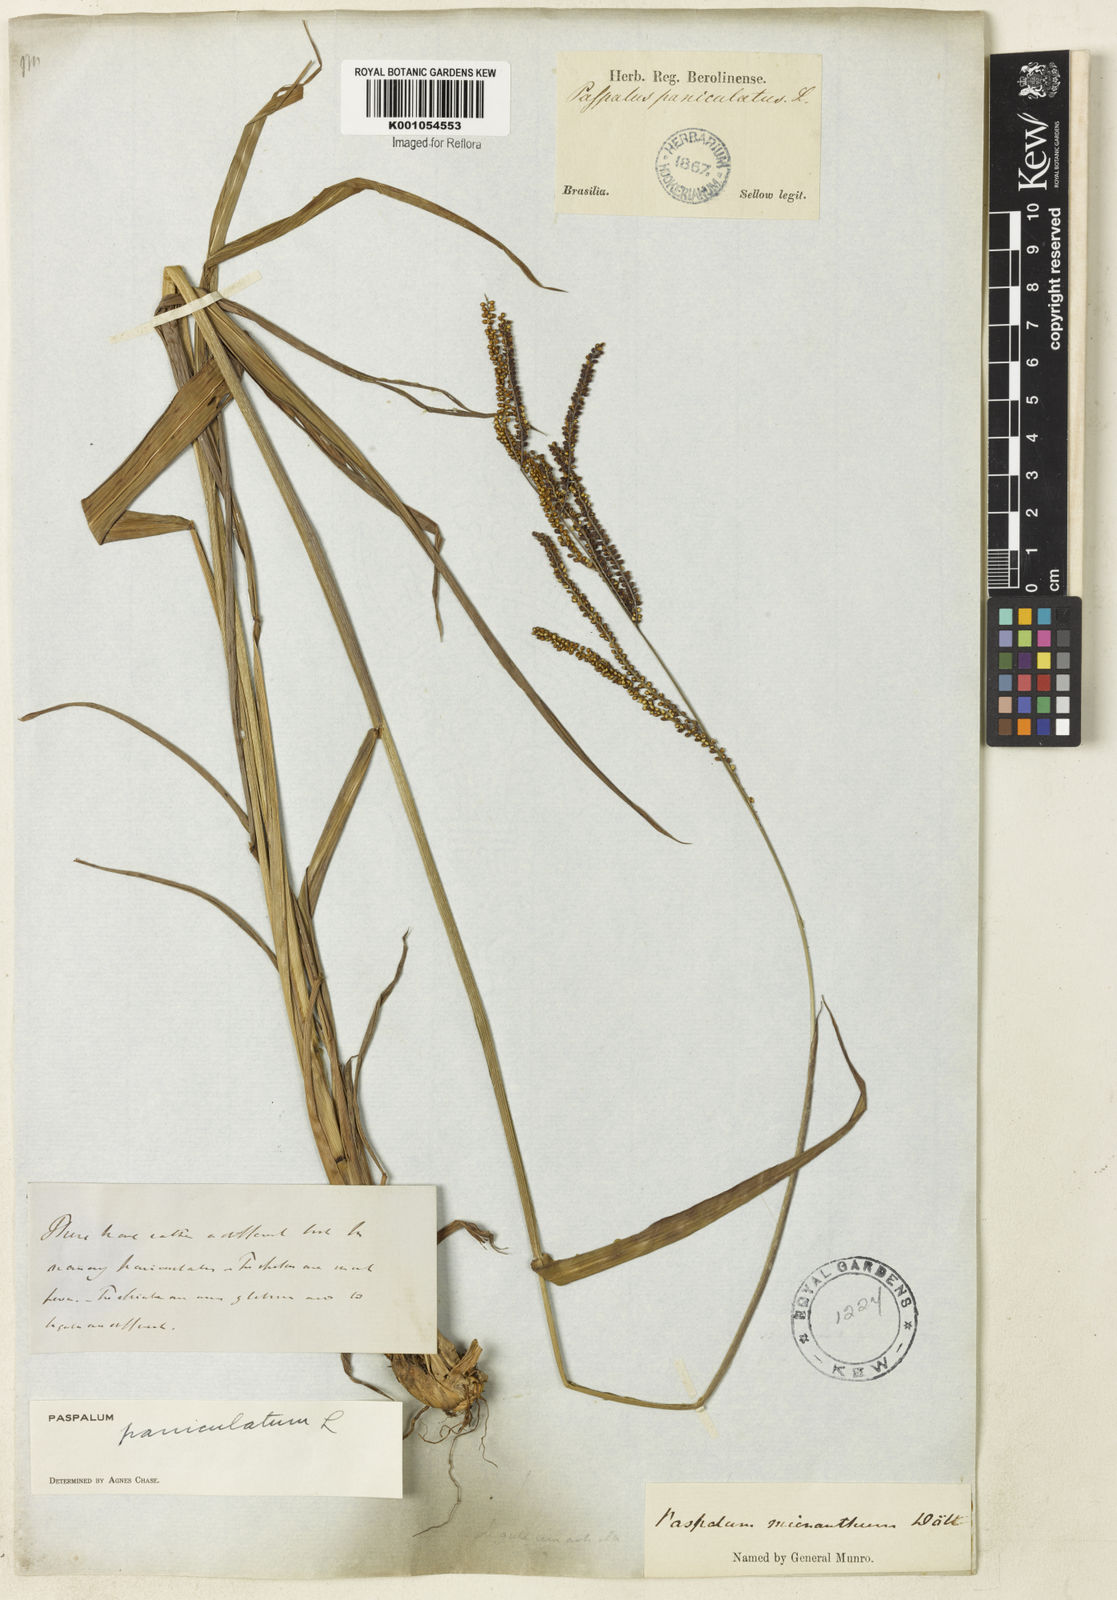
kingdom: Plantae
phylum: Tracheophyta
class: Liliopsida
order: Poales
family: Poaceae
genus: Paspalum
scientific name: Paspalum paniculatum
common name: Arrocillo
